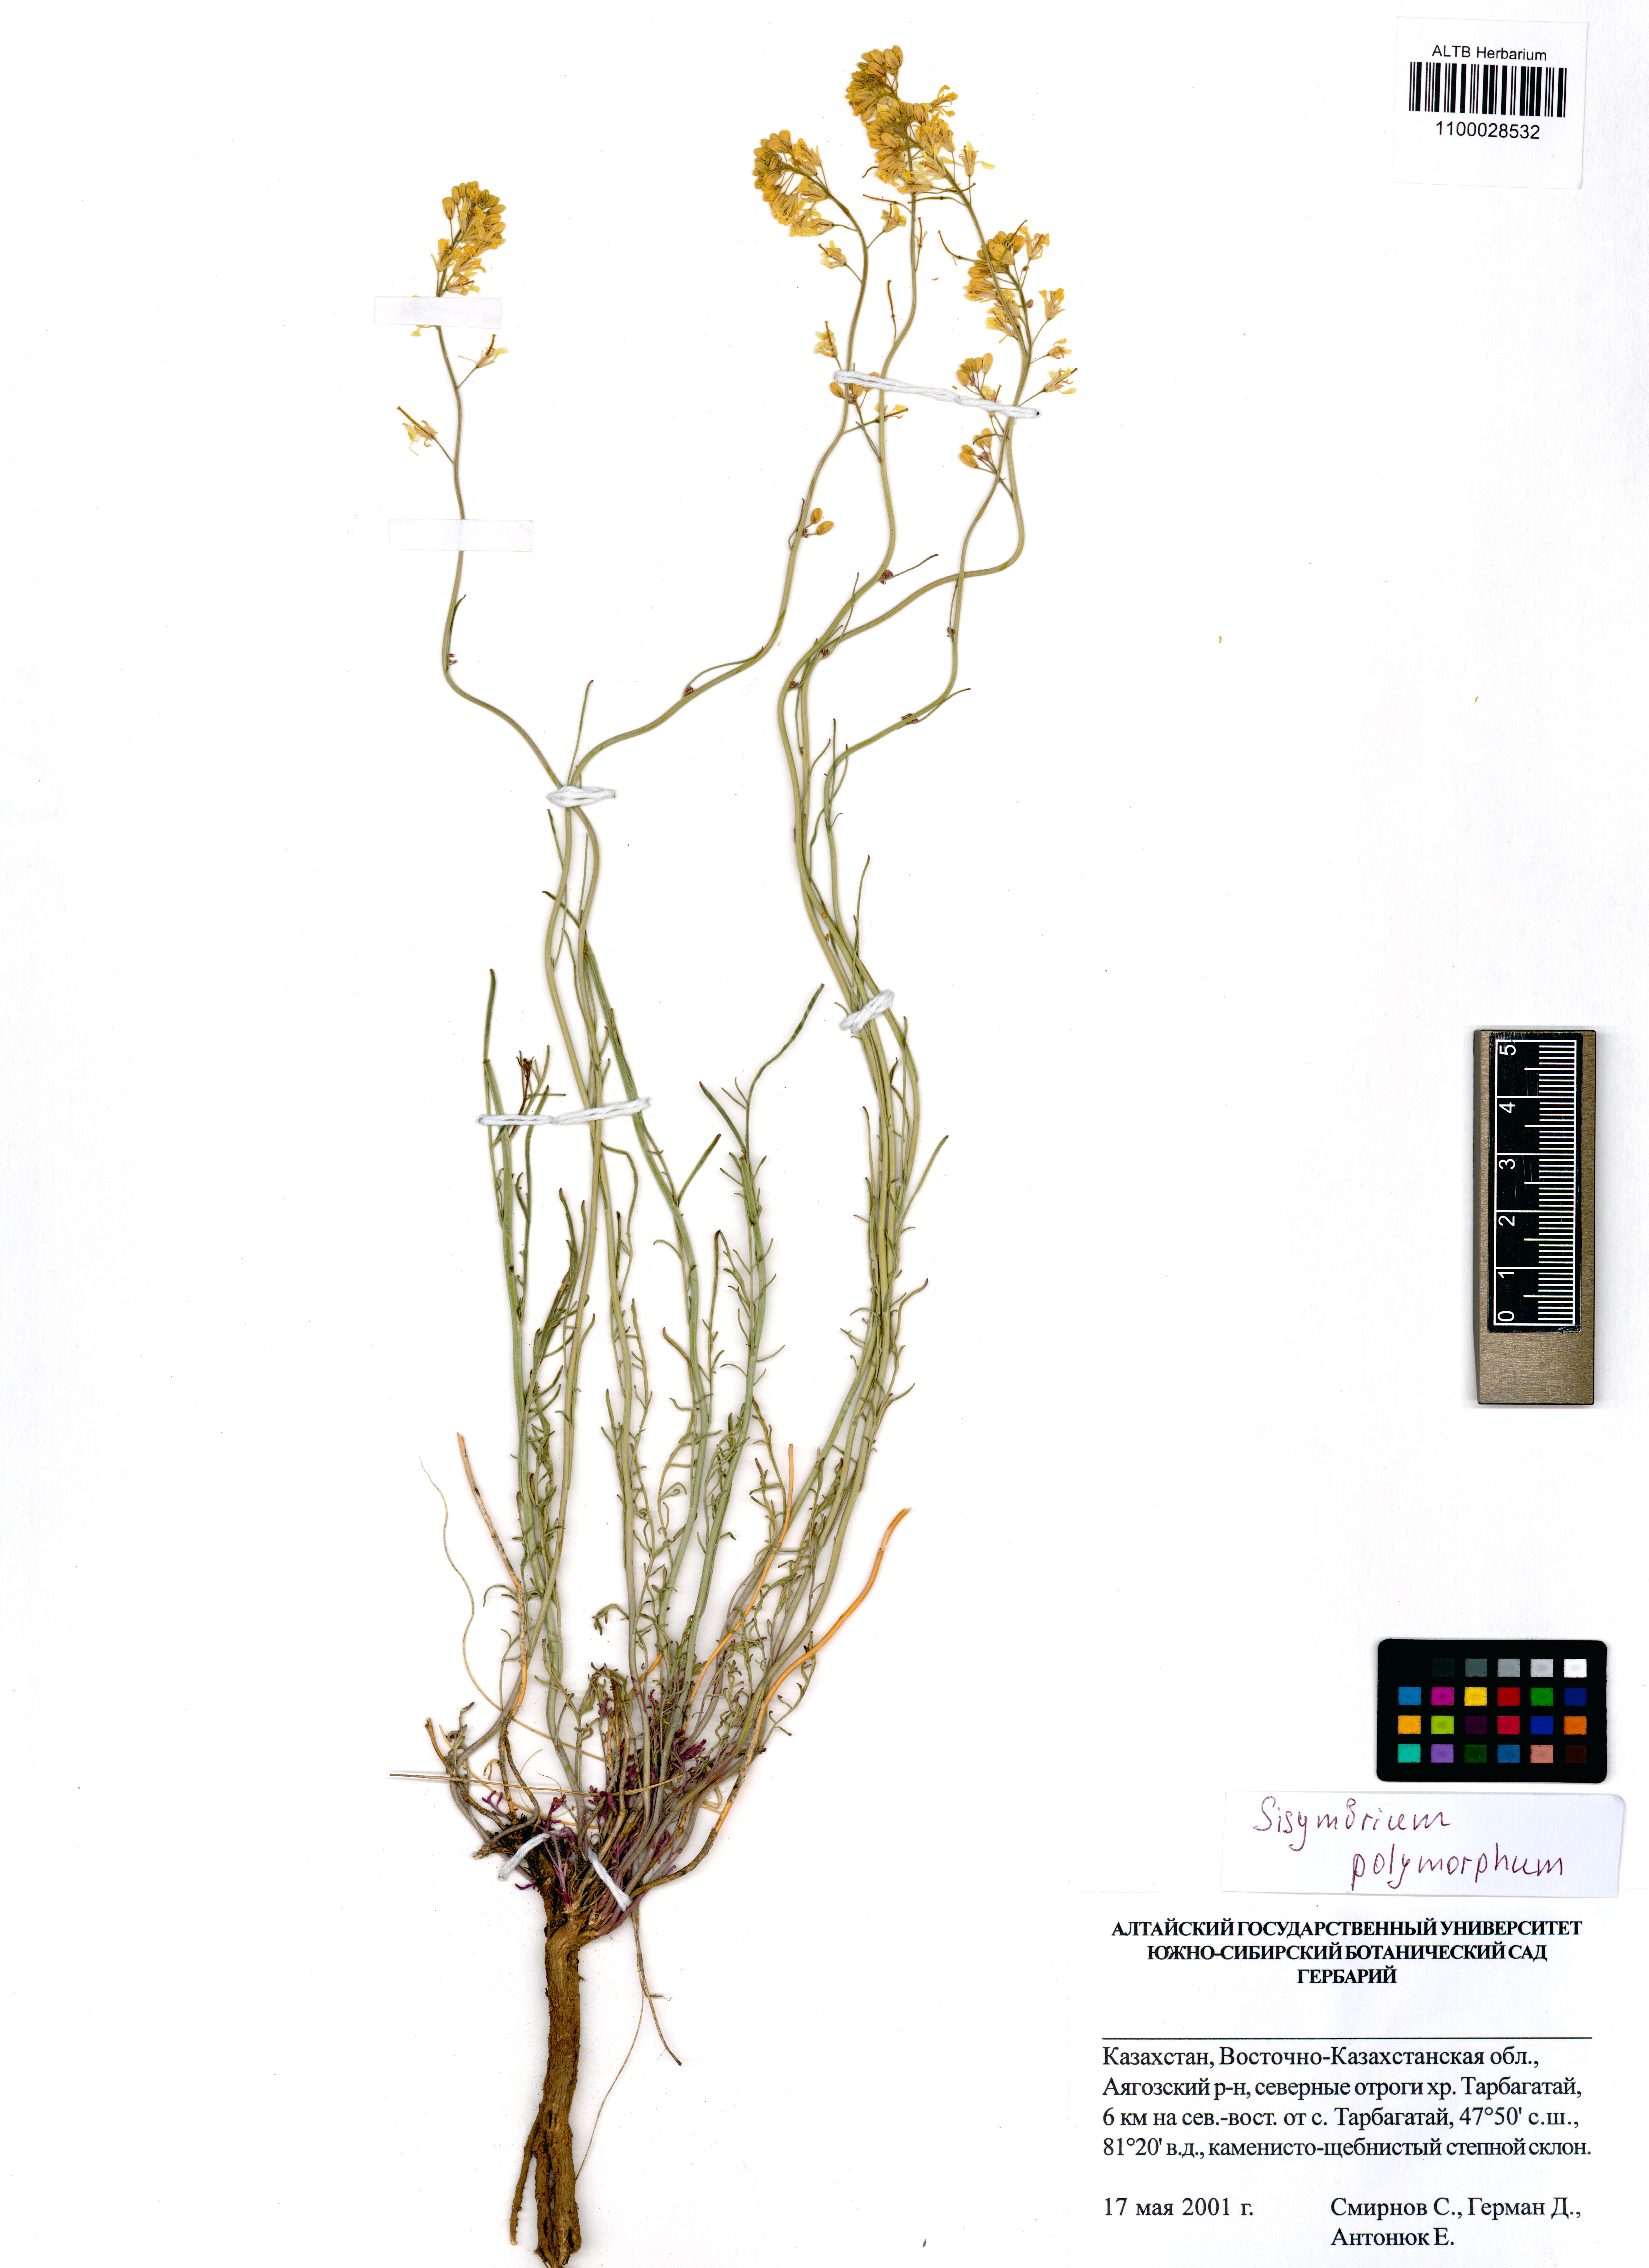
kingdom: Plantae
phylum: Tracheophyta
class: Magnoliopsida
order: Brassicales
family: Brassicaceae
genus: Sisymbrium
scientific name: Sisymbrium polymorphum
